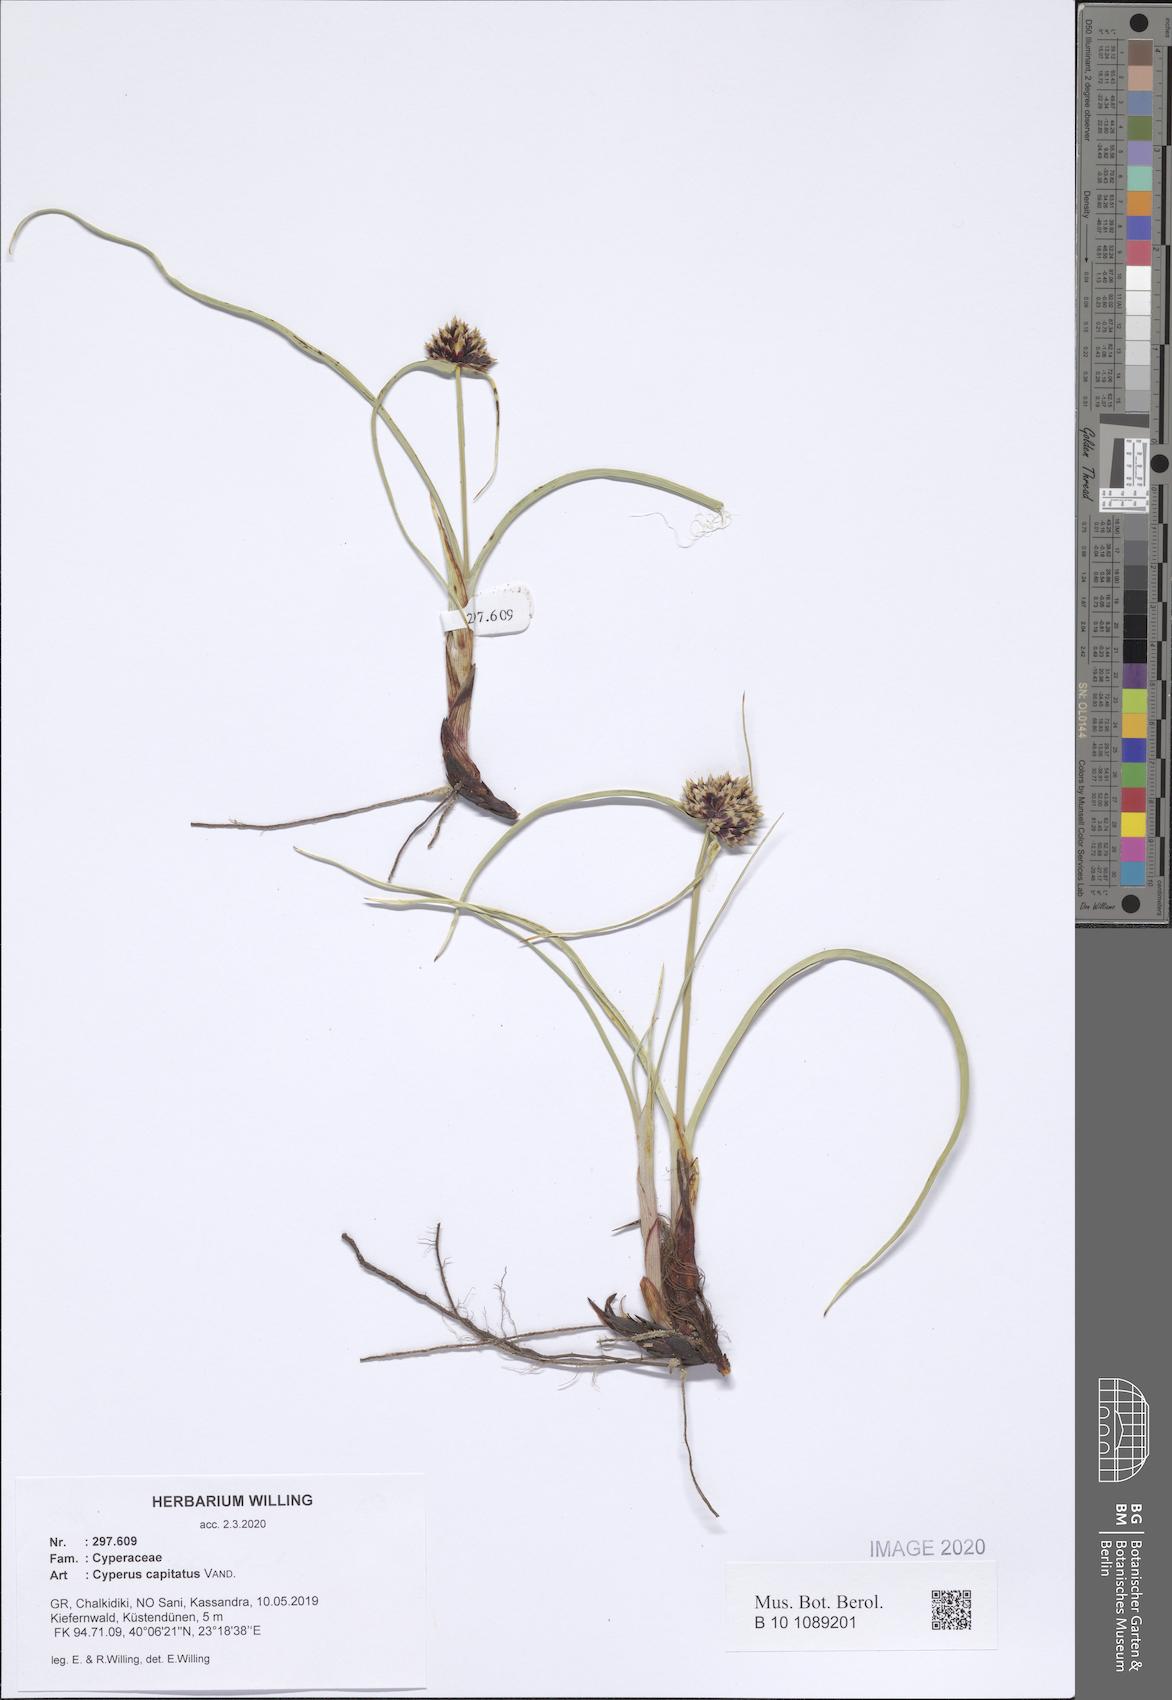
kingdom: Plantae
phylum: Tracheophyta
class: Liliopsida
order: Poales
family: Cyperaceae
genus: Cyperus
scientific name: Cyperus capitatus
